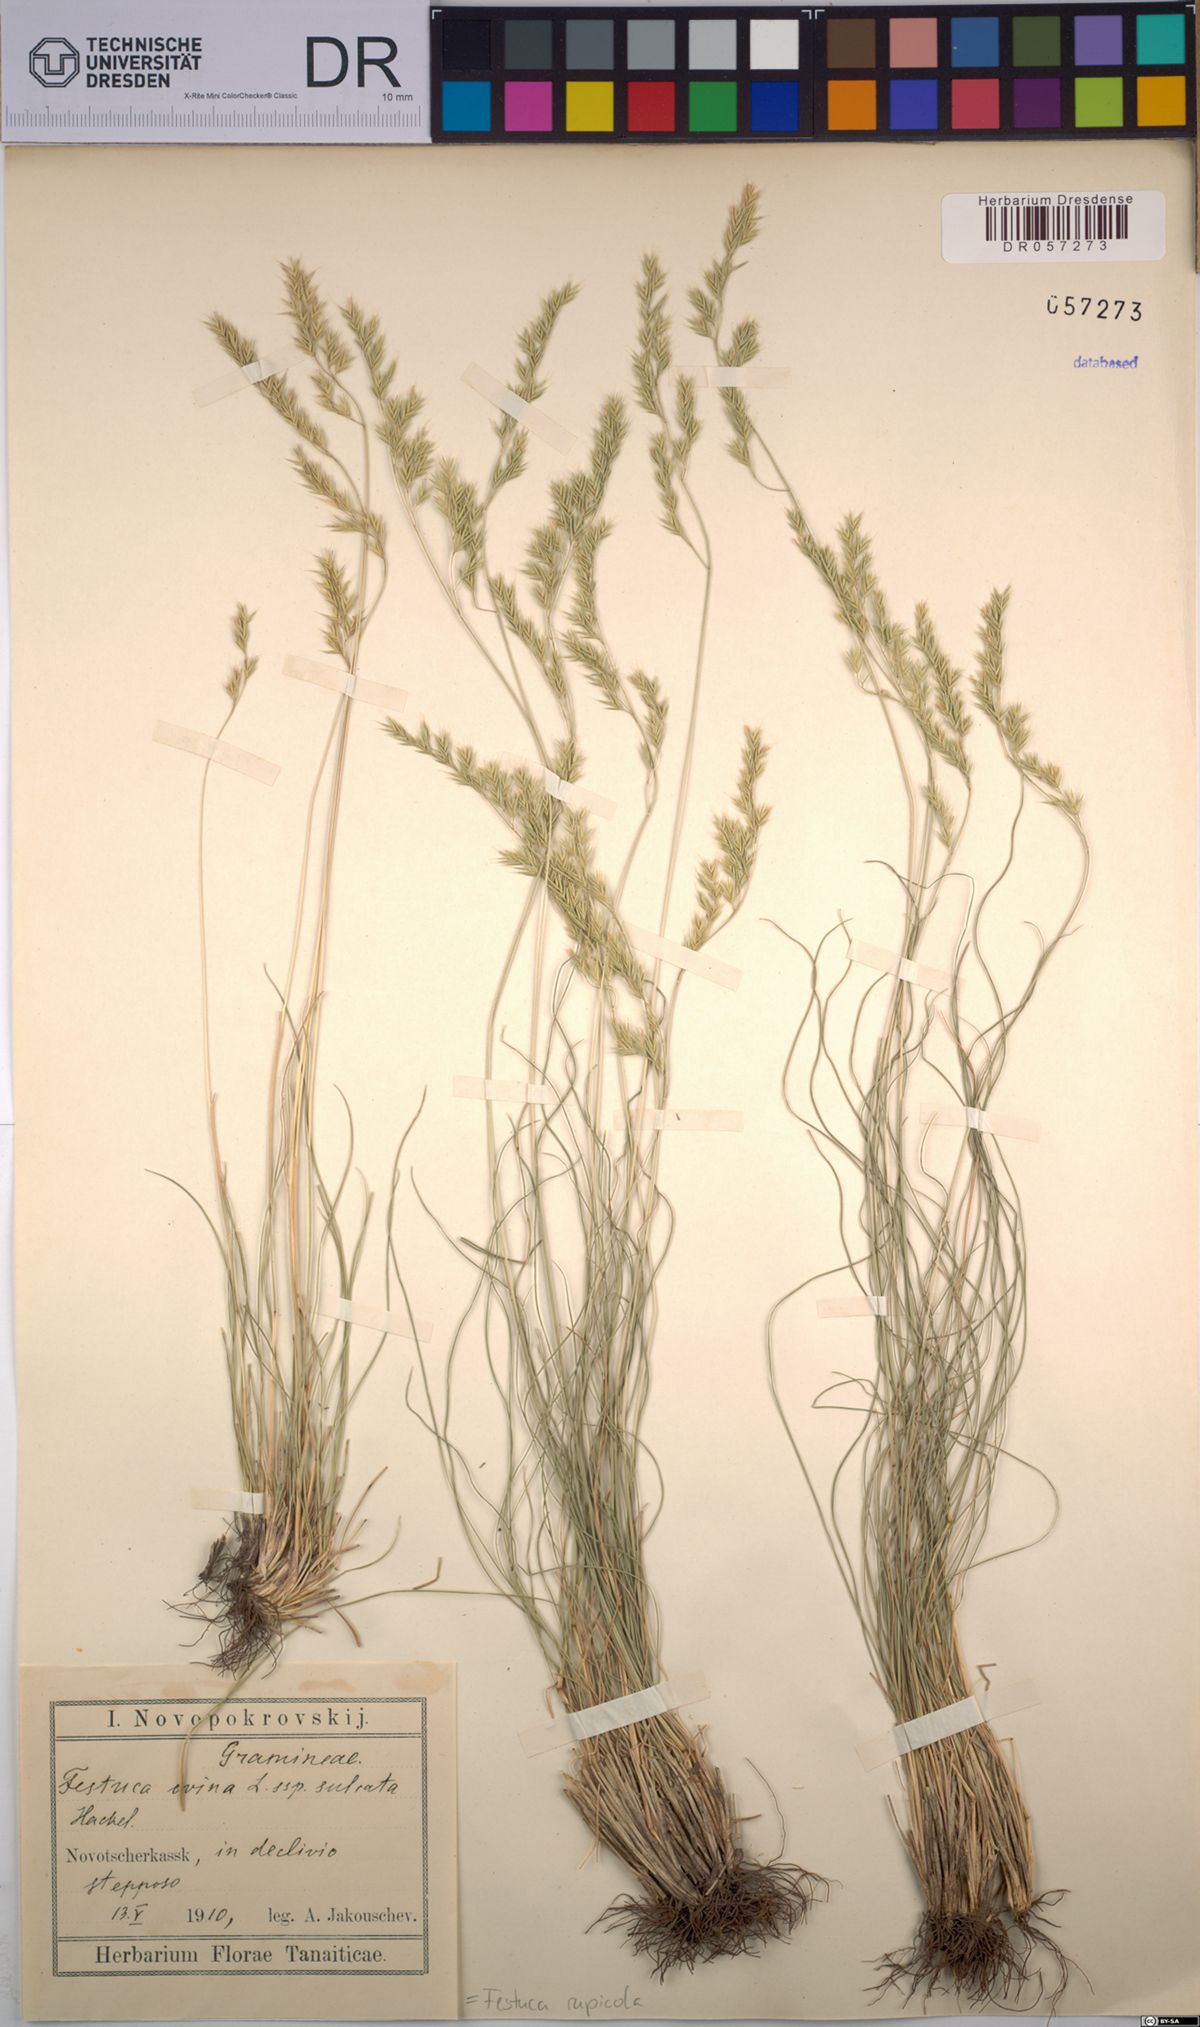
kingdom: Plantae
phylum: Tracheophyta
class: Liliopsida
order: Poales
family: Poaceae
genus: Festuca
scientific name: Festuca rupicola
